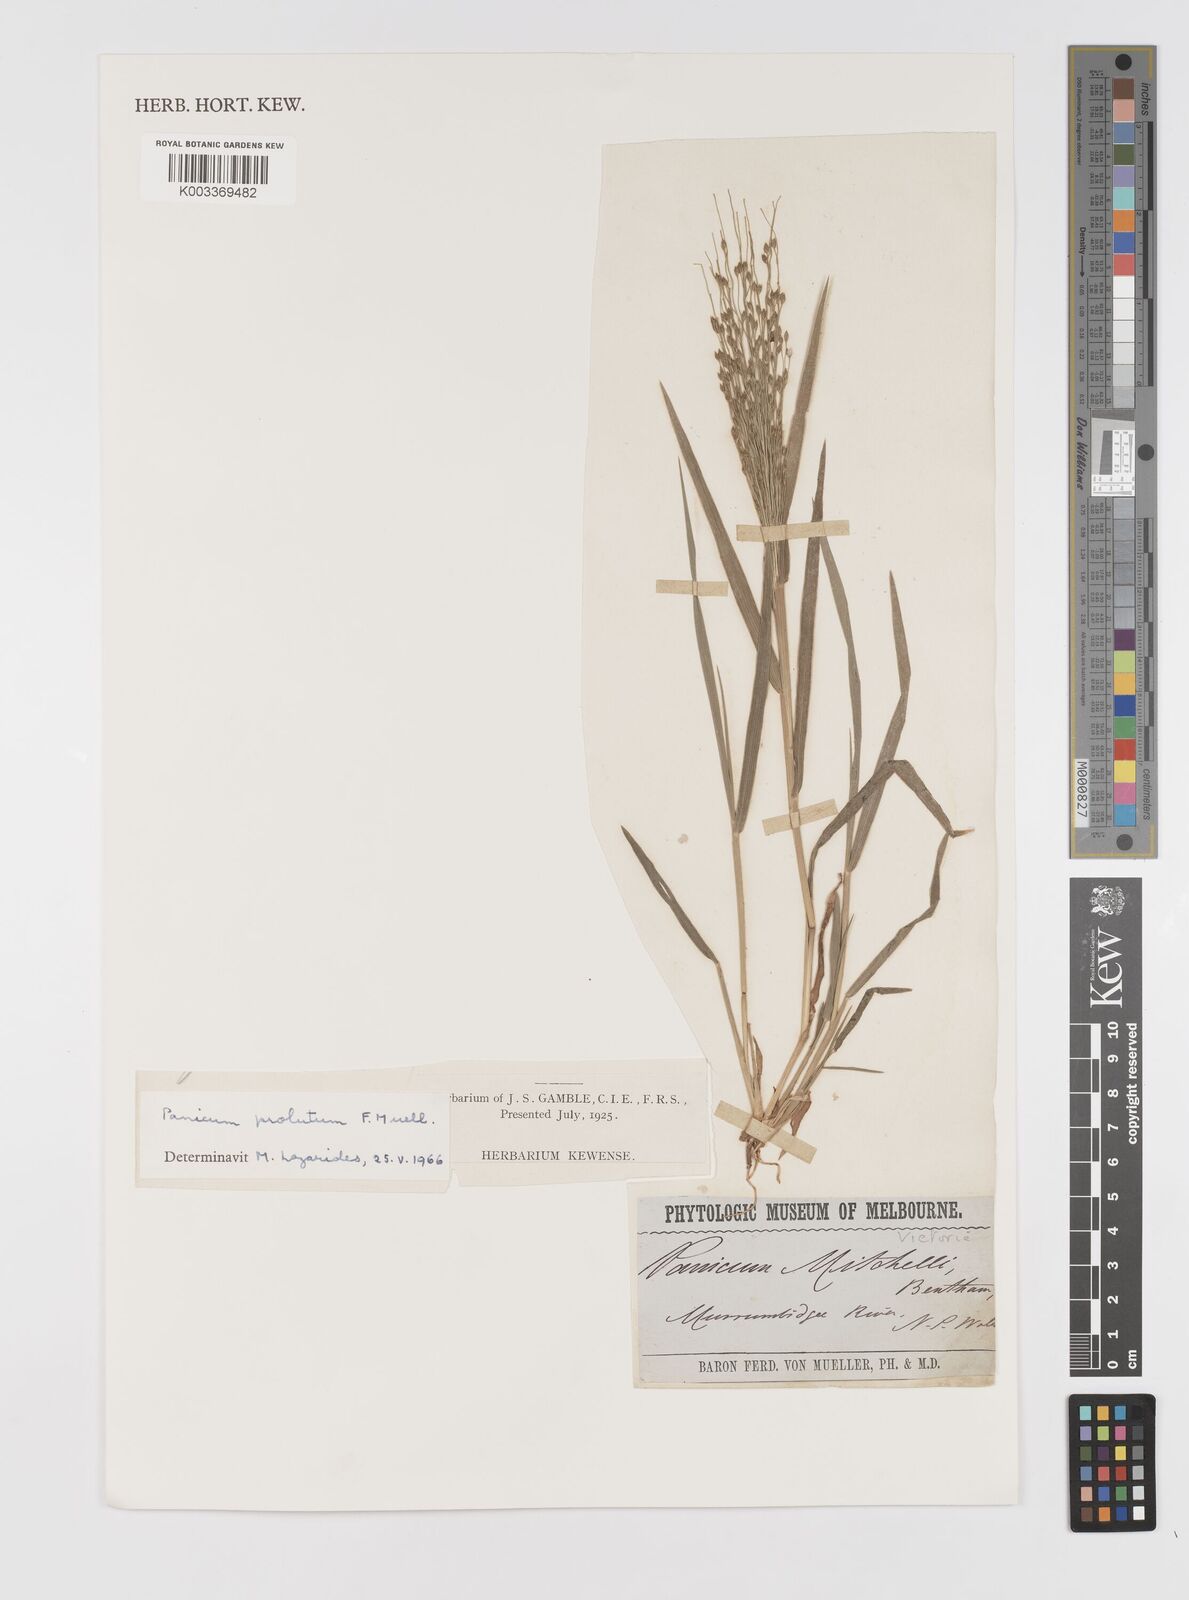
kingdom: Plantae
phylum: Tracheophyta
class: Liliopsida
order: Poales
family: Poaceae
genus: Walwhalleya
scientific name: Walwhalleya proluta
